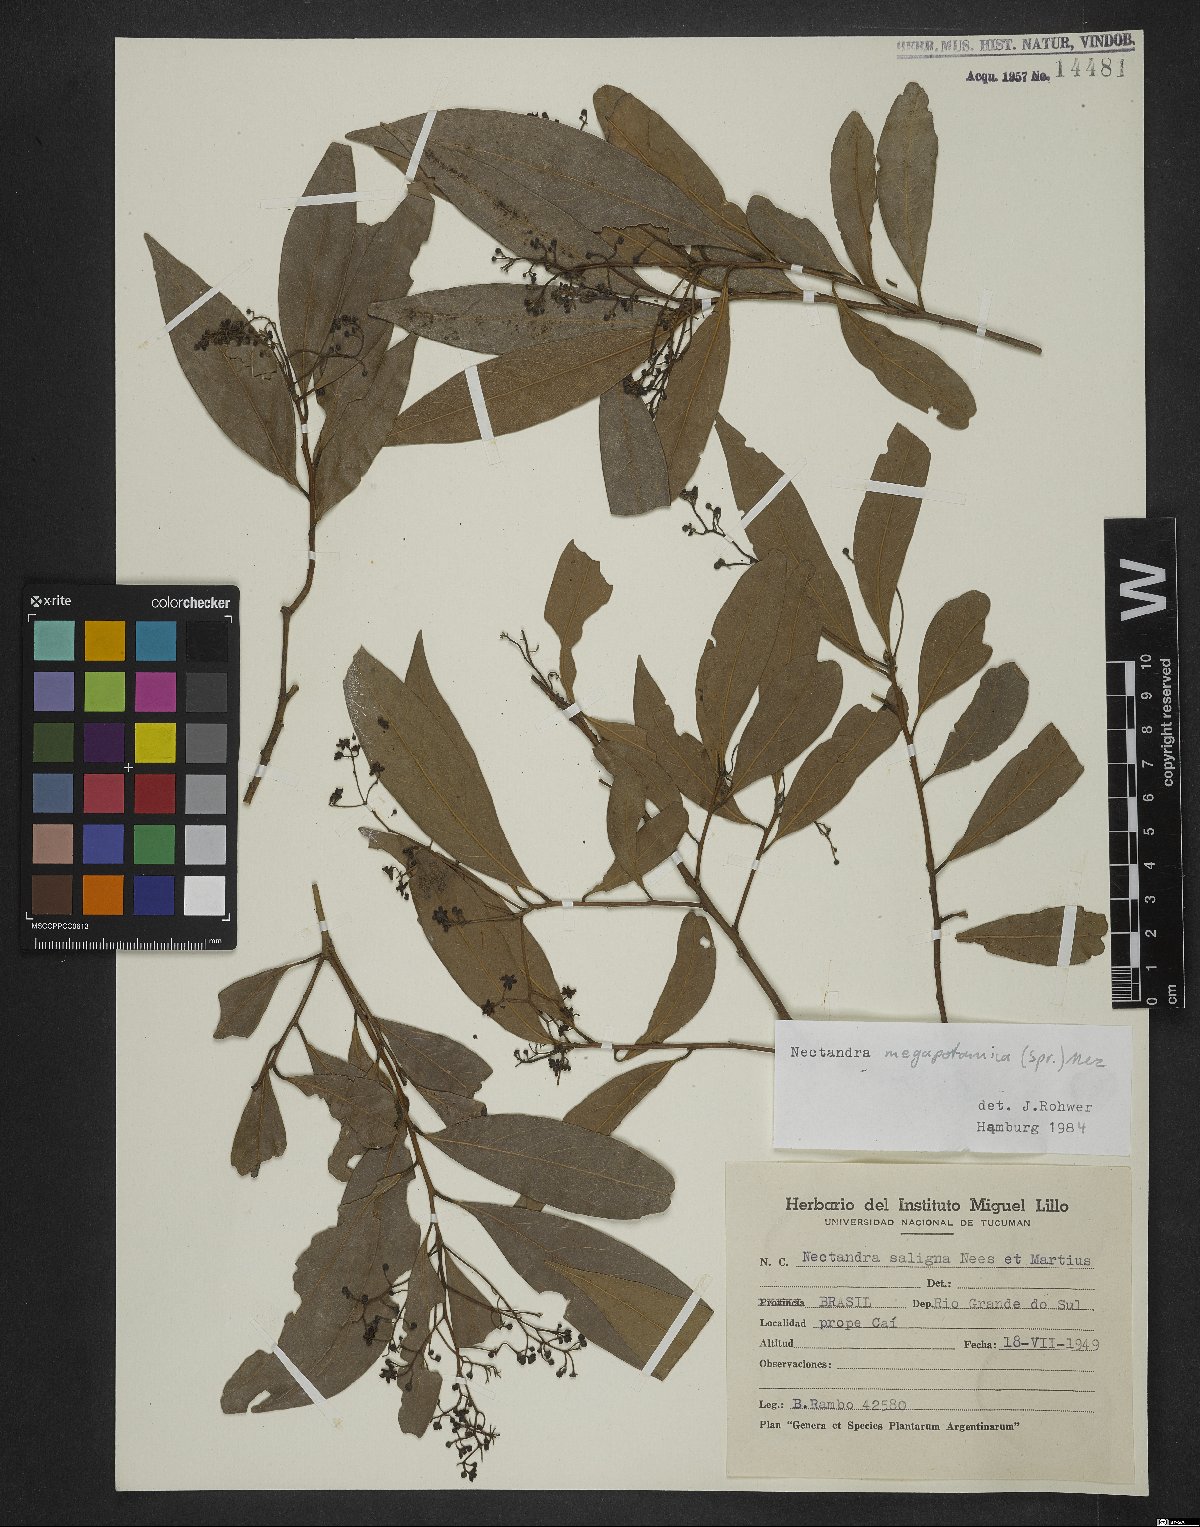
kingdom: Plantae
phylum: Tracheophyta
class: Magnoliopsida
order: Laurales
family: Lauraceae
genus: Nectandra
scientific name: Nectandra megapotamica
